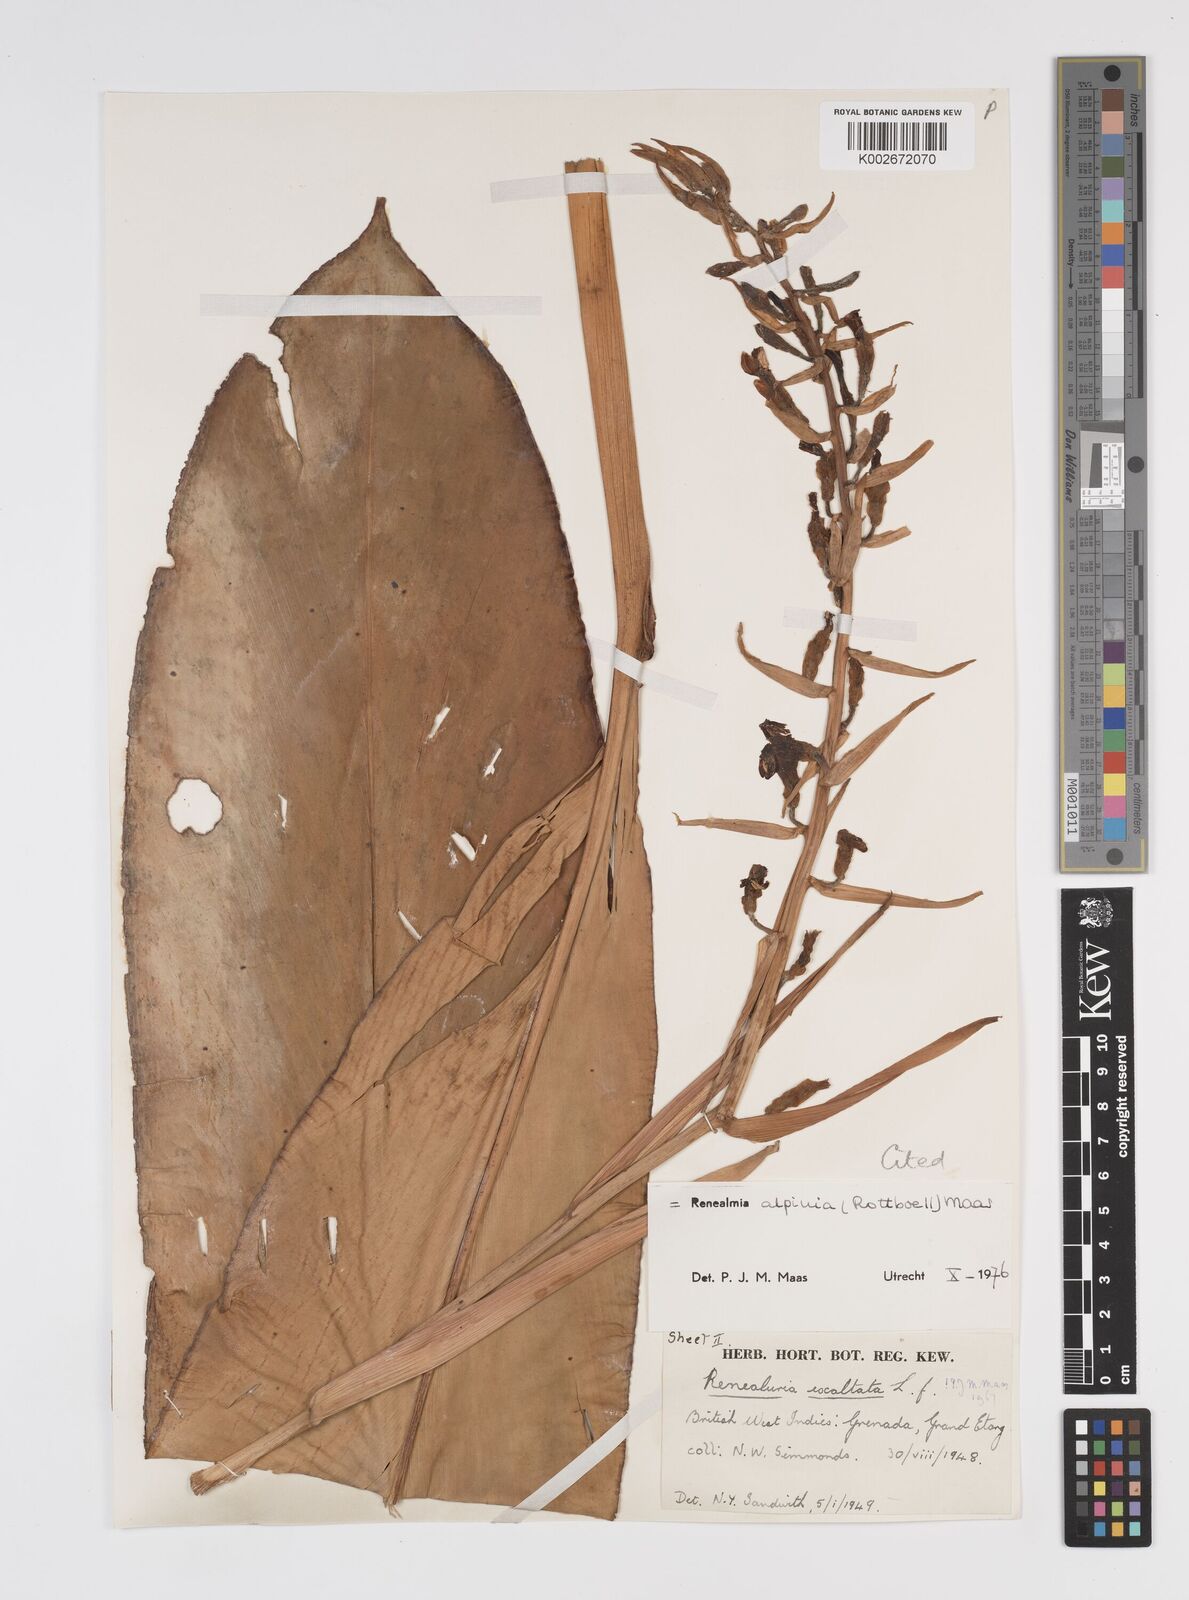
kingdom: Plantae
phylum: Tracheophyta
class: Liliopsida
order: Zingiberales
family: Zingiberaceae
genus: Renealmia
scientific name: Renealmia alpinia
